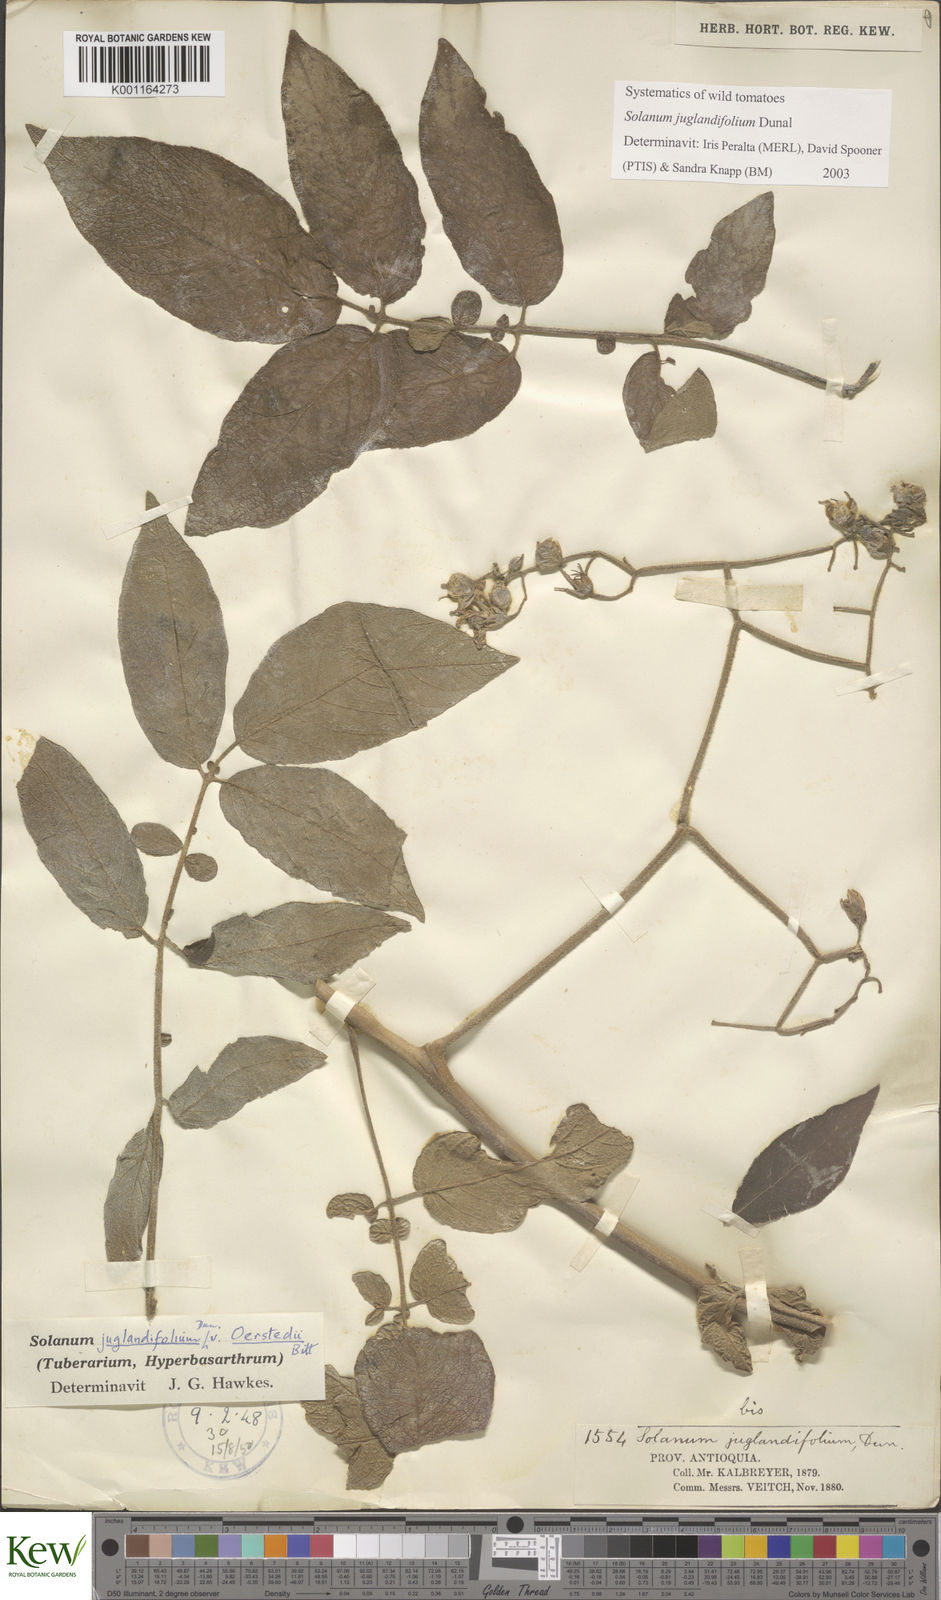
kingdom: Plantae
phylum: Tracheophyta
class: Magnoliopsida
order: Solanales
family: Solanaceae
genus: Solanum
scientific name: Solanum juglandifolium
